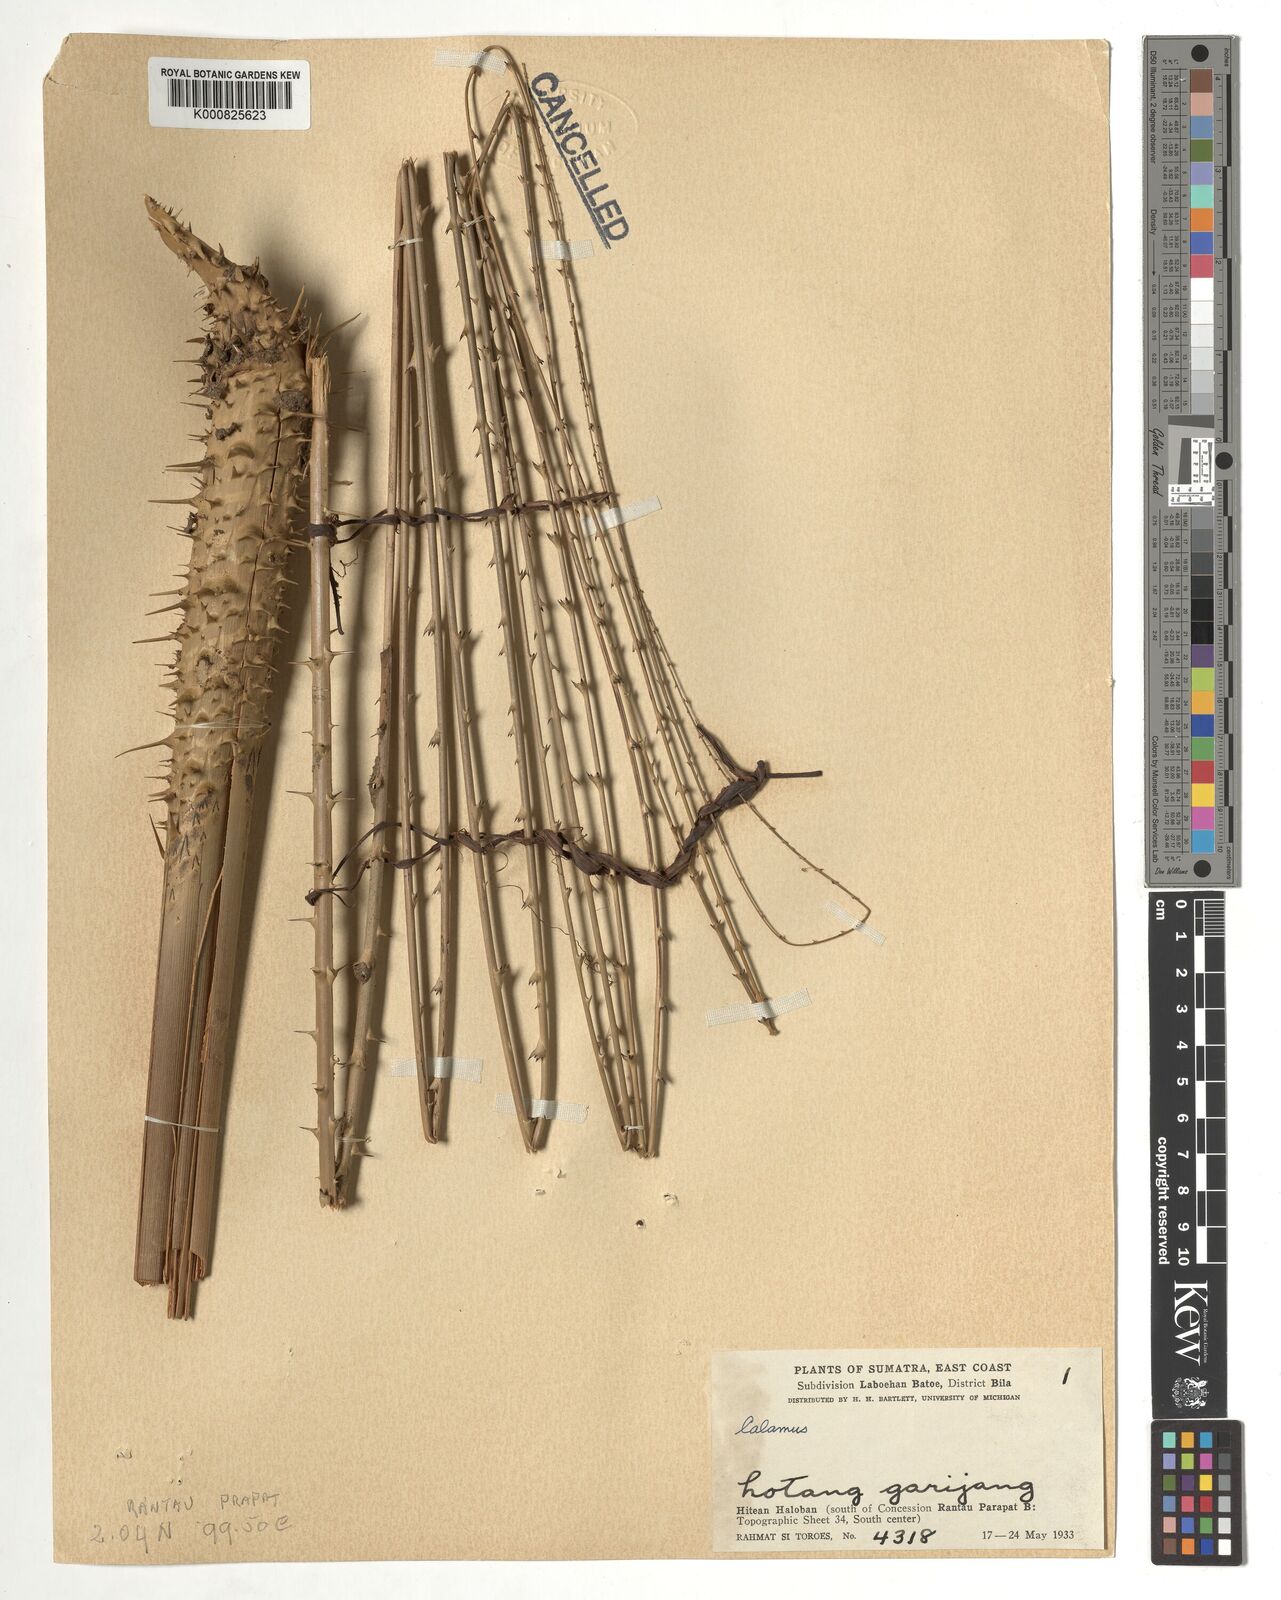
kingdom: Plantae
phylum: Tracheophyta
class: Liliopsida
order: Arecales
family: Arecaceae
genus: Calamus
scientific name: Calamus
